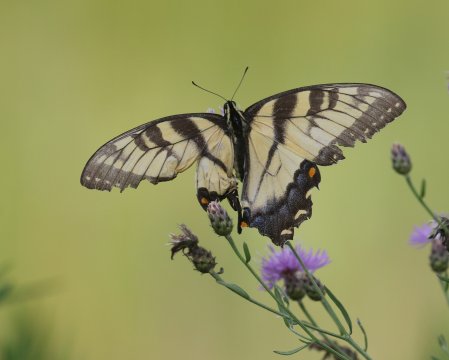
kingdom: Animalia
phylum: Arthropoda
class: Insecta
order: Lepidoptera
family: Papilionidae
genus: Pterourus
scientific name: Pterourus glaucus
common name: Eastern Tiger Swallowtail
